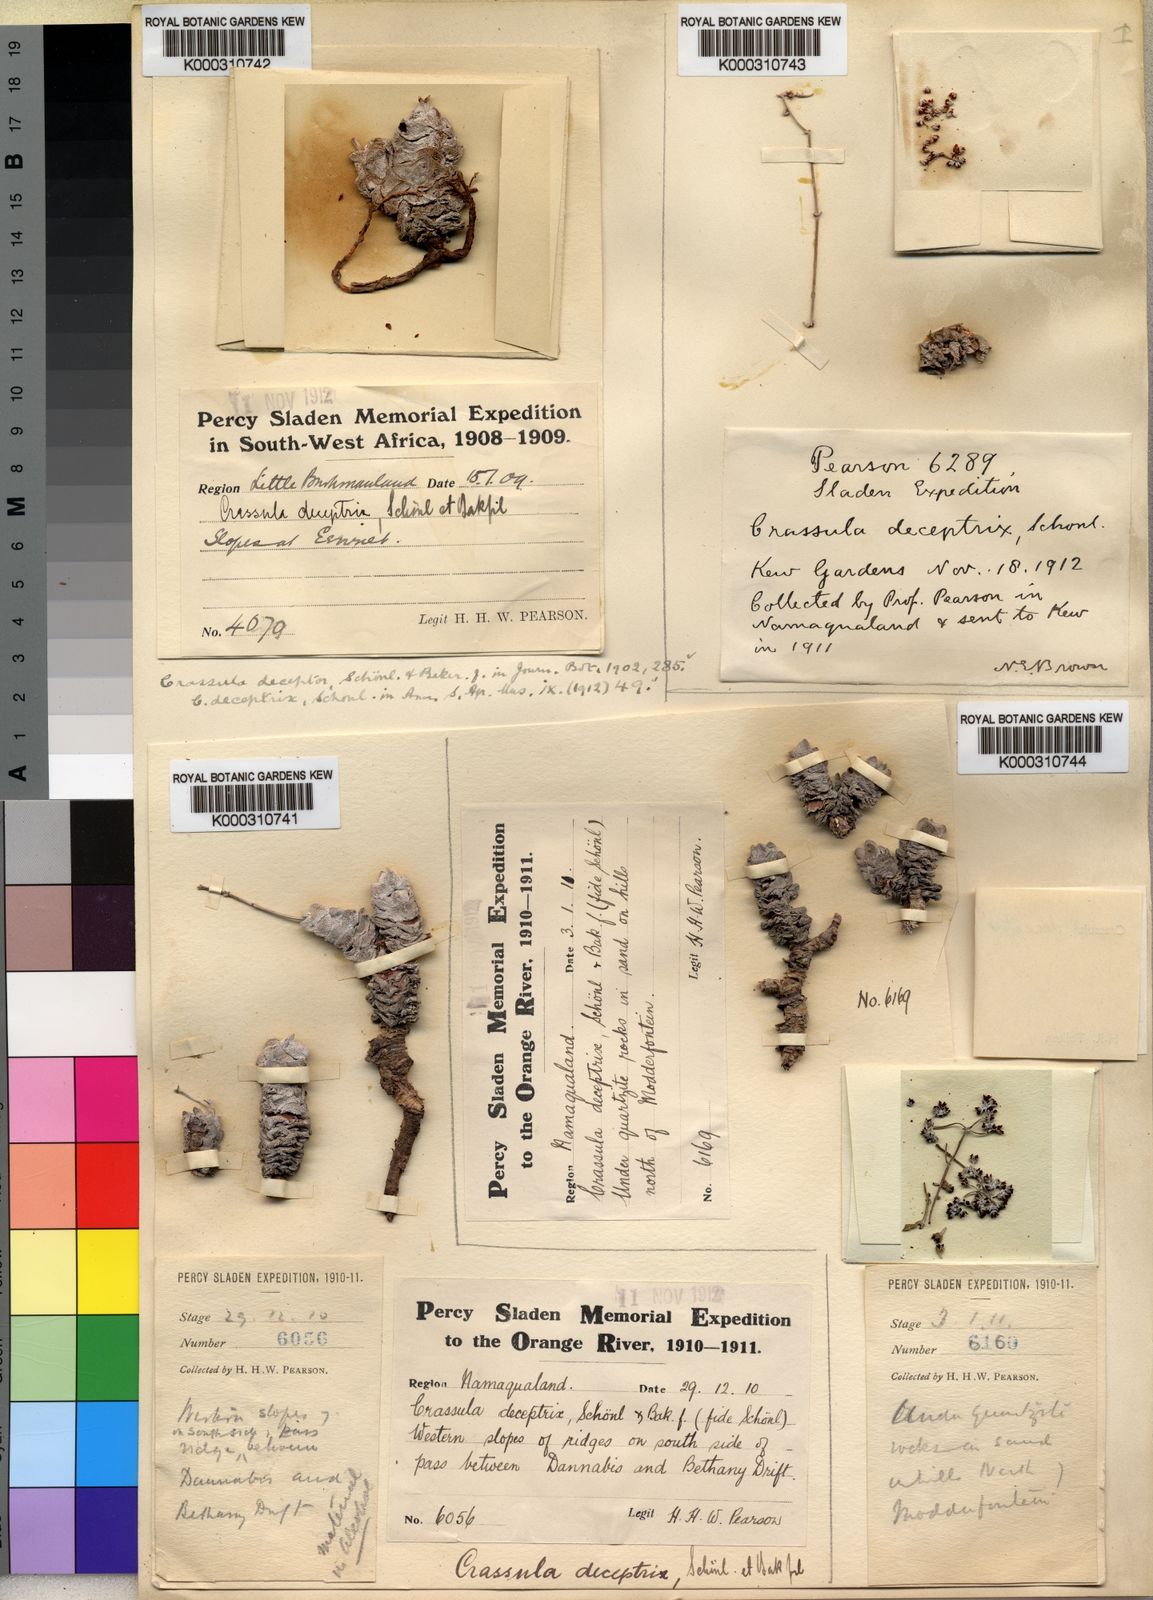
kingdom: Plantae
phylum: Tracheophyta
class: Magnoliopsida
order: Saxifragales
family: Crassulaceae
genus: Crassula
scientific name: Crassula
